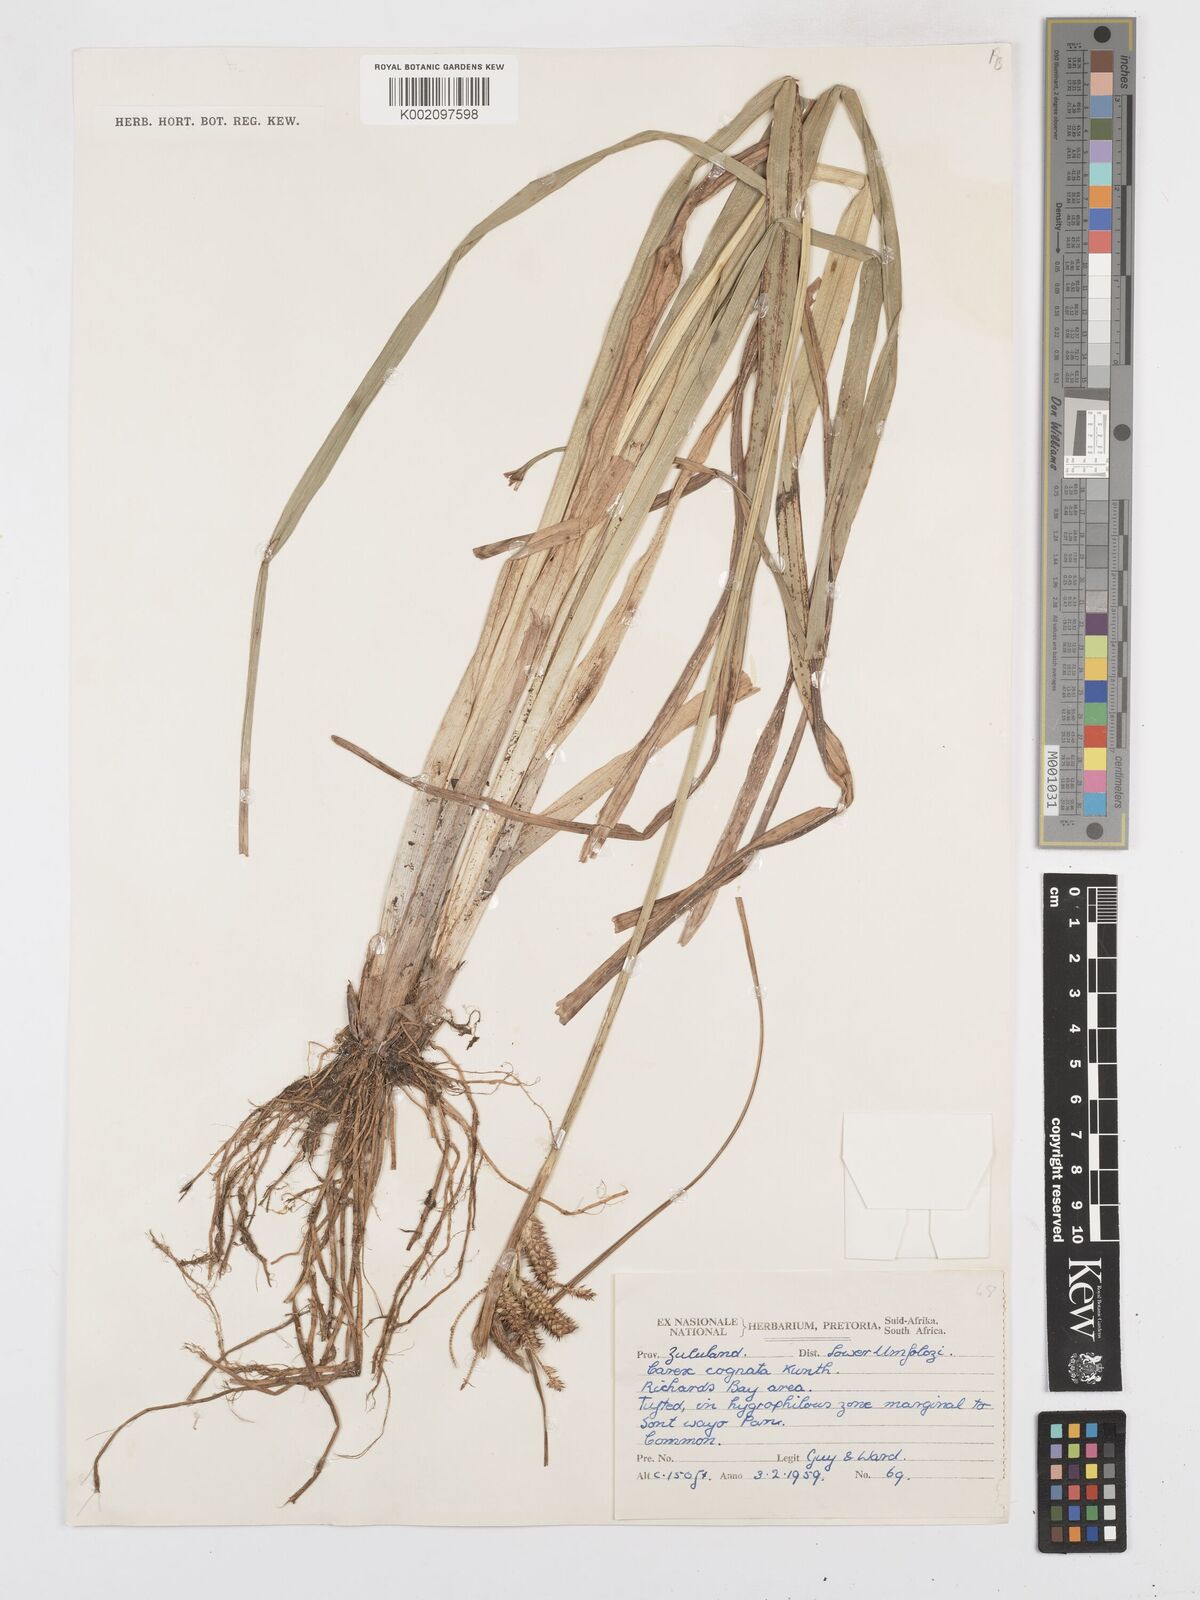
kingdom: Plantae
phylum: Tracheophyta
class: Liliopsida
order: Poales
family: Cyperaceae
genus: Carex
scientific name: Carex cognata
